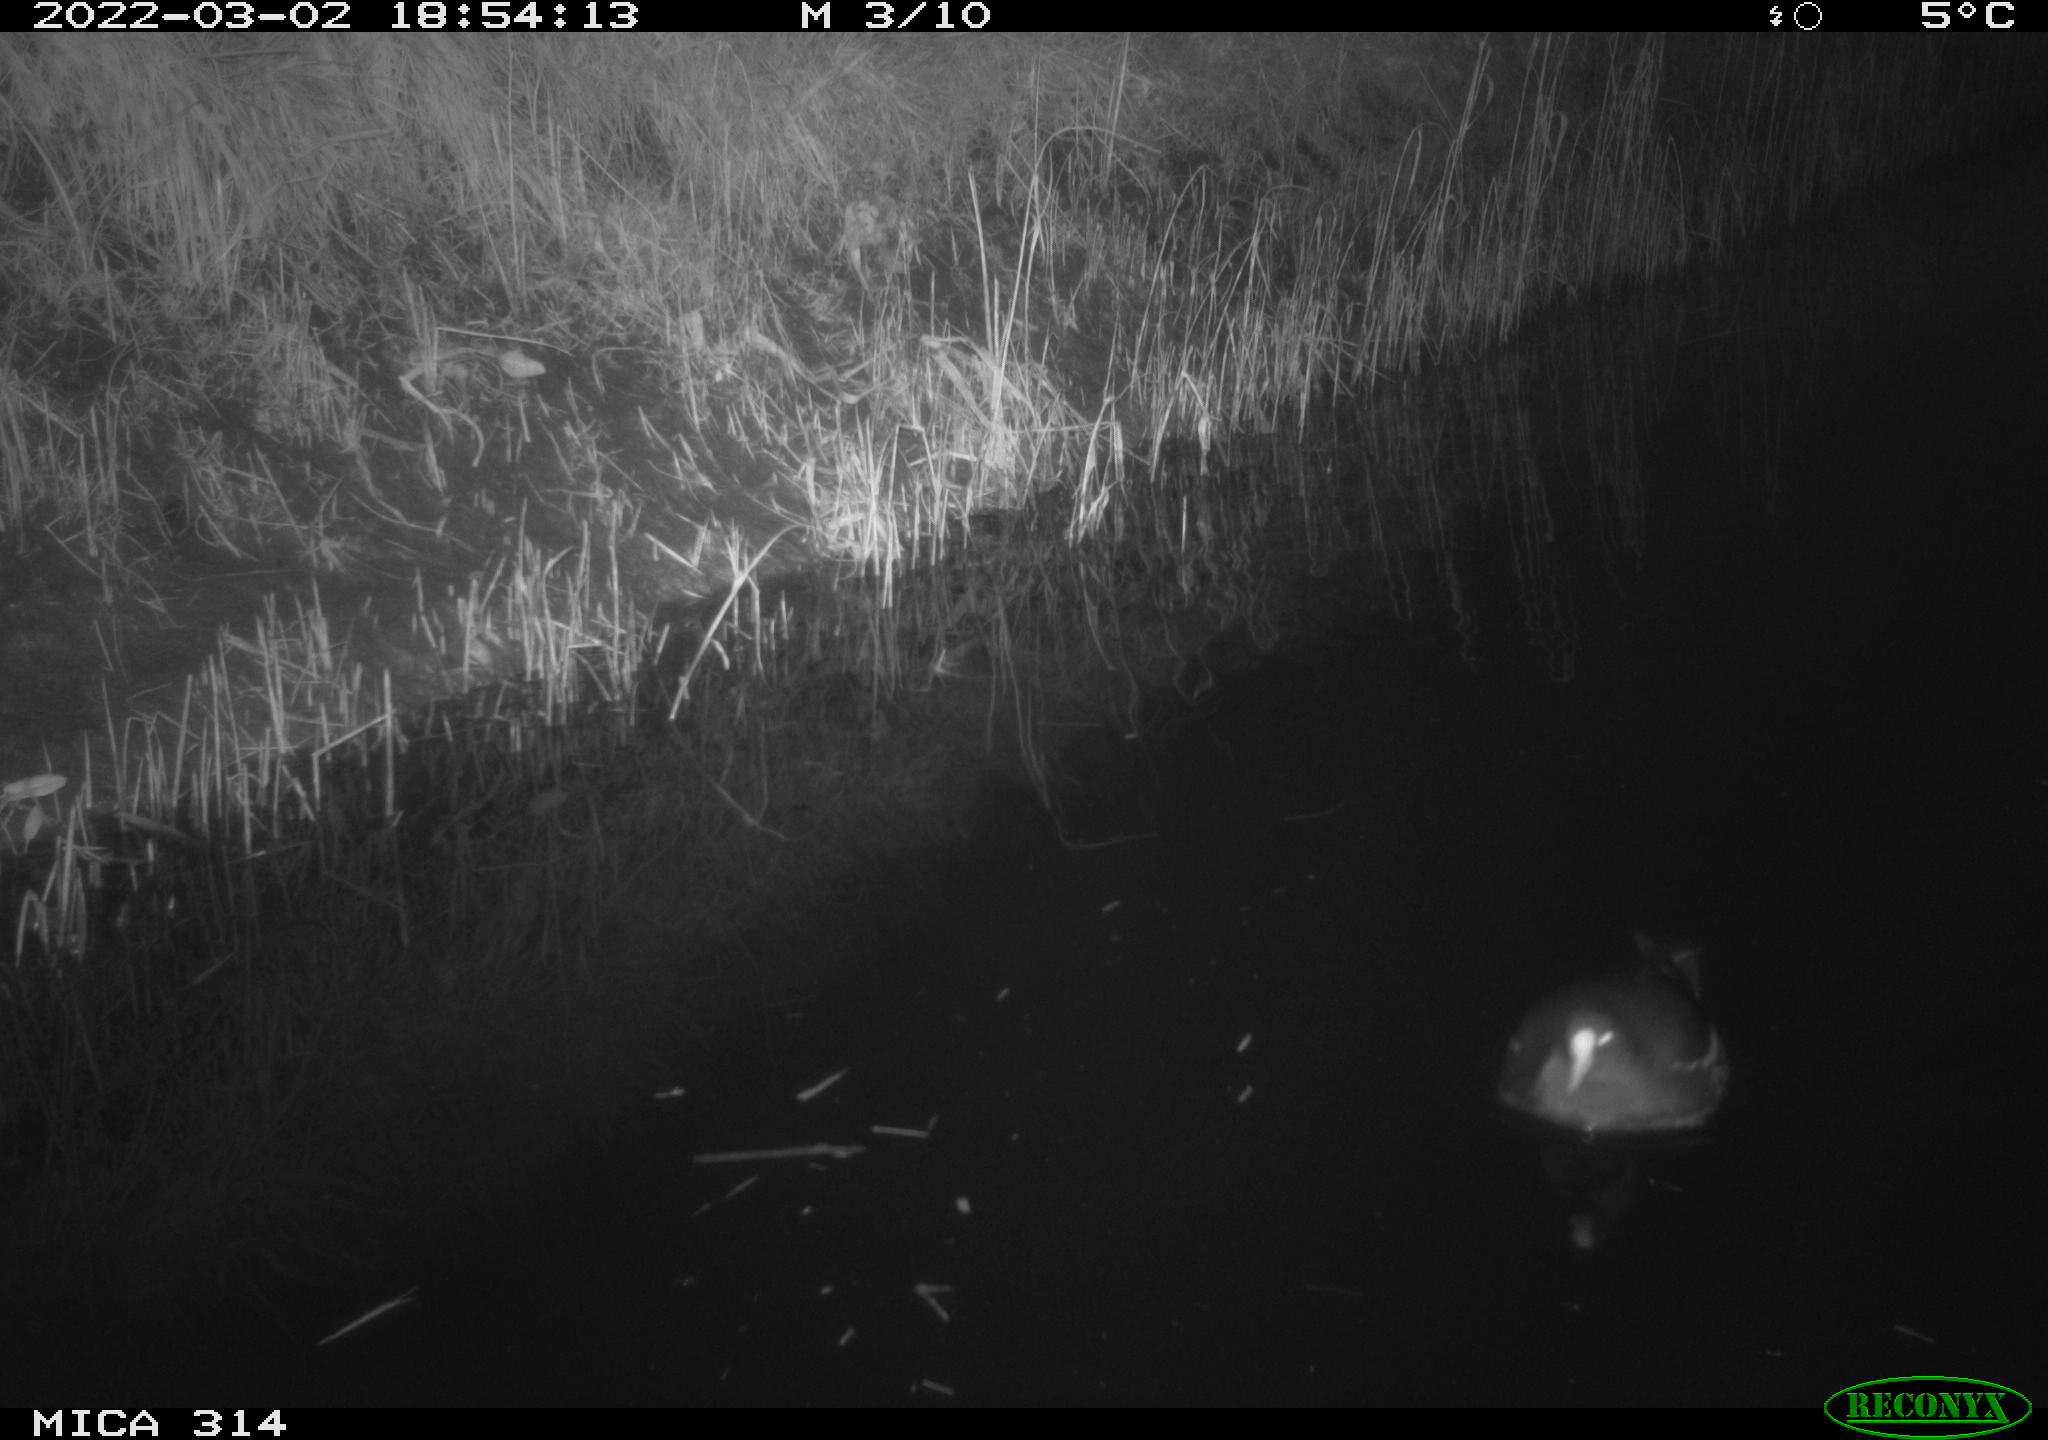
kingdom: Animalia
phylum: Chordata
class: Aves
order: Gruiformes
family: Rallidae
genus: Gallinula
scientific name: Gallinula chloropus
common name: Common moorhen
